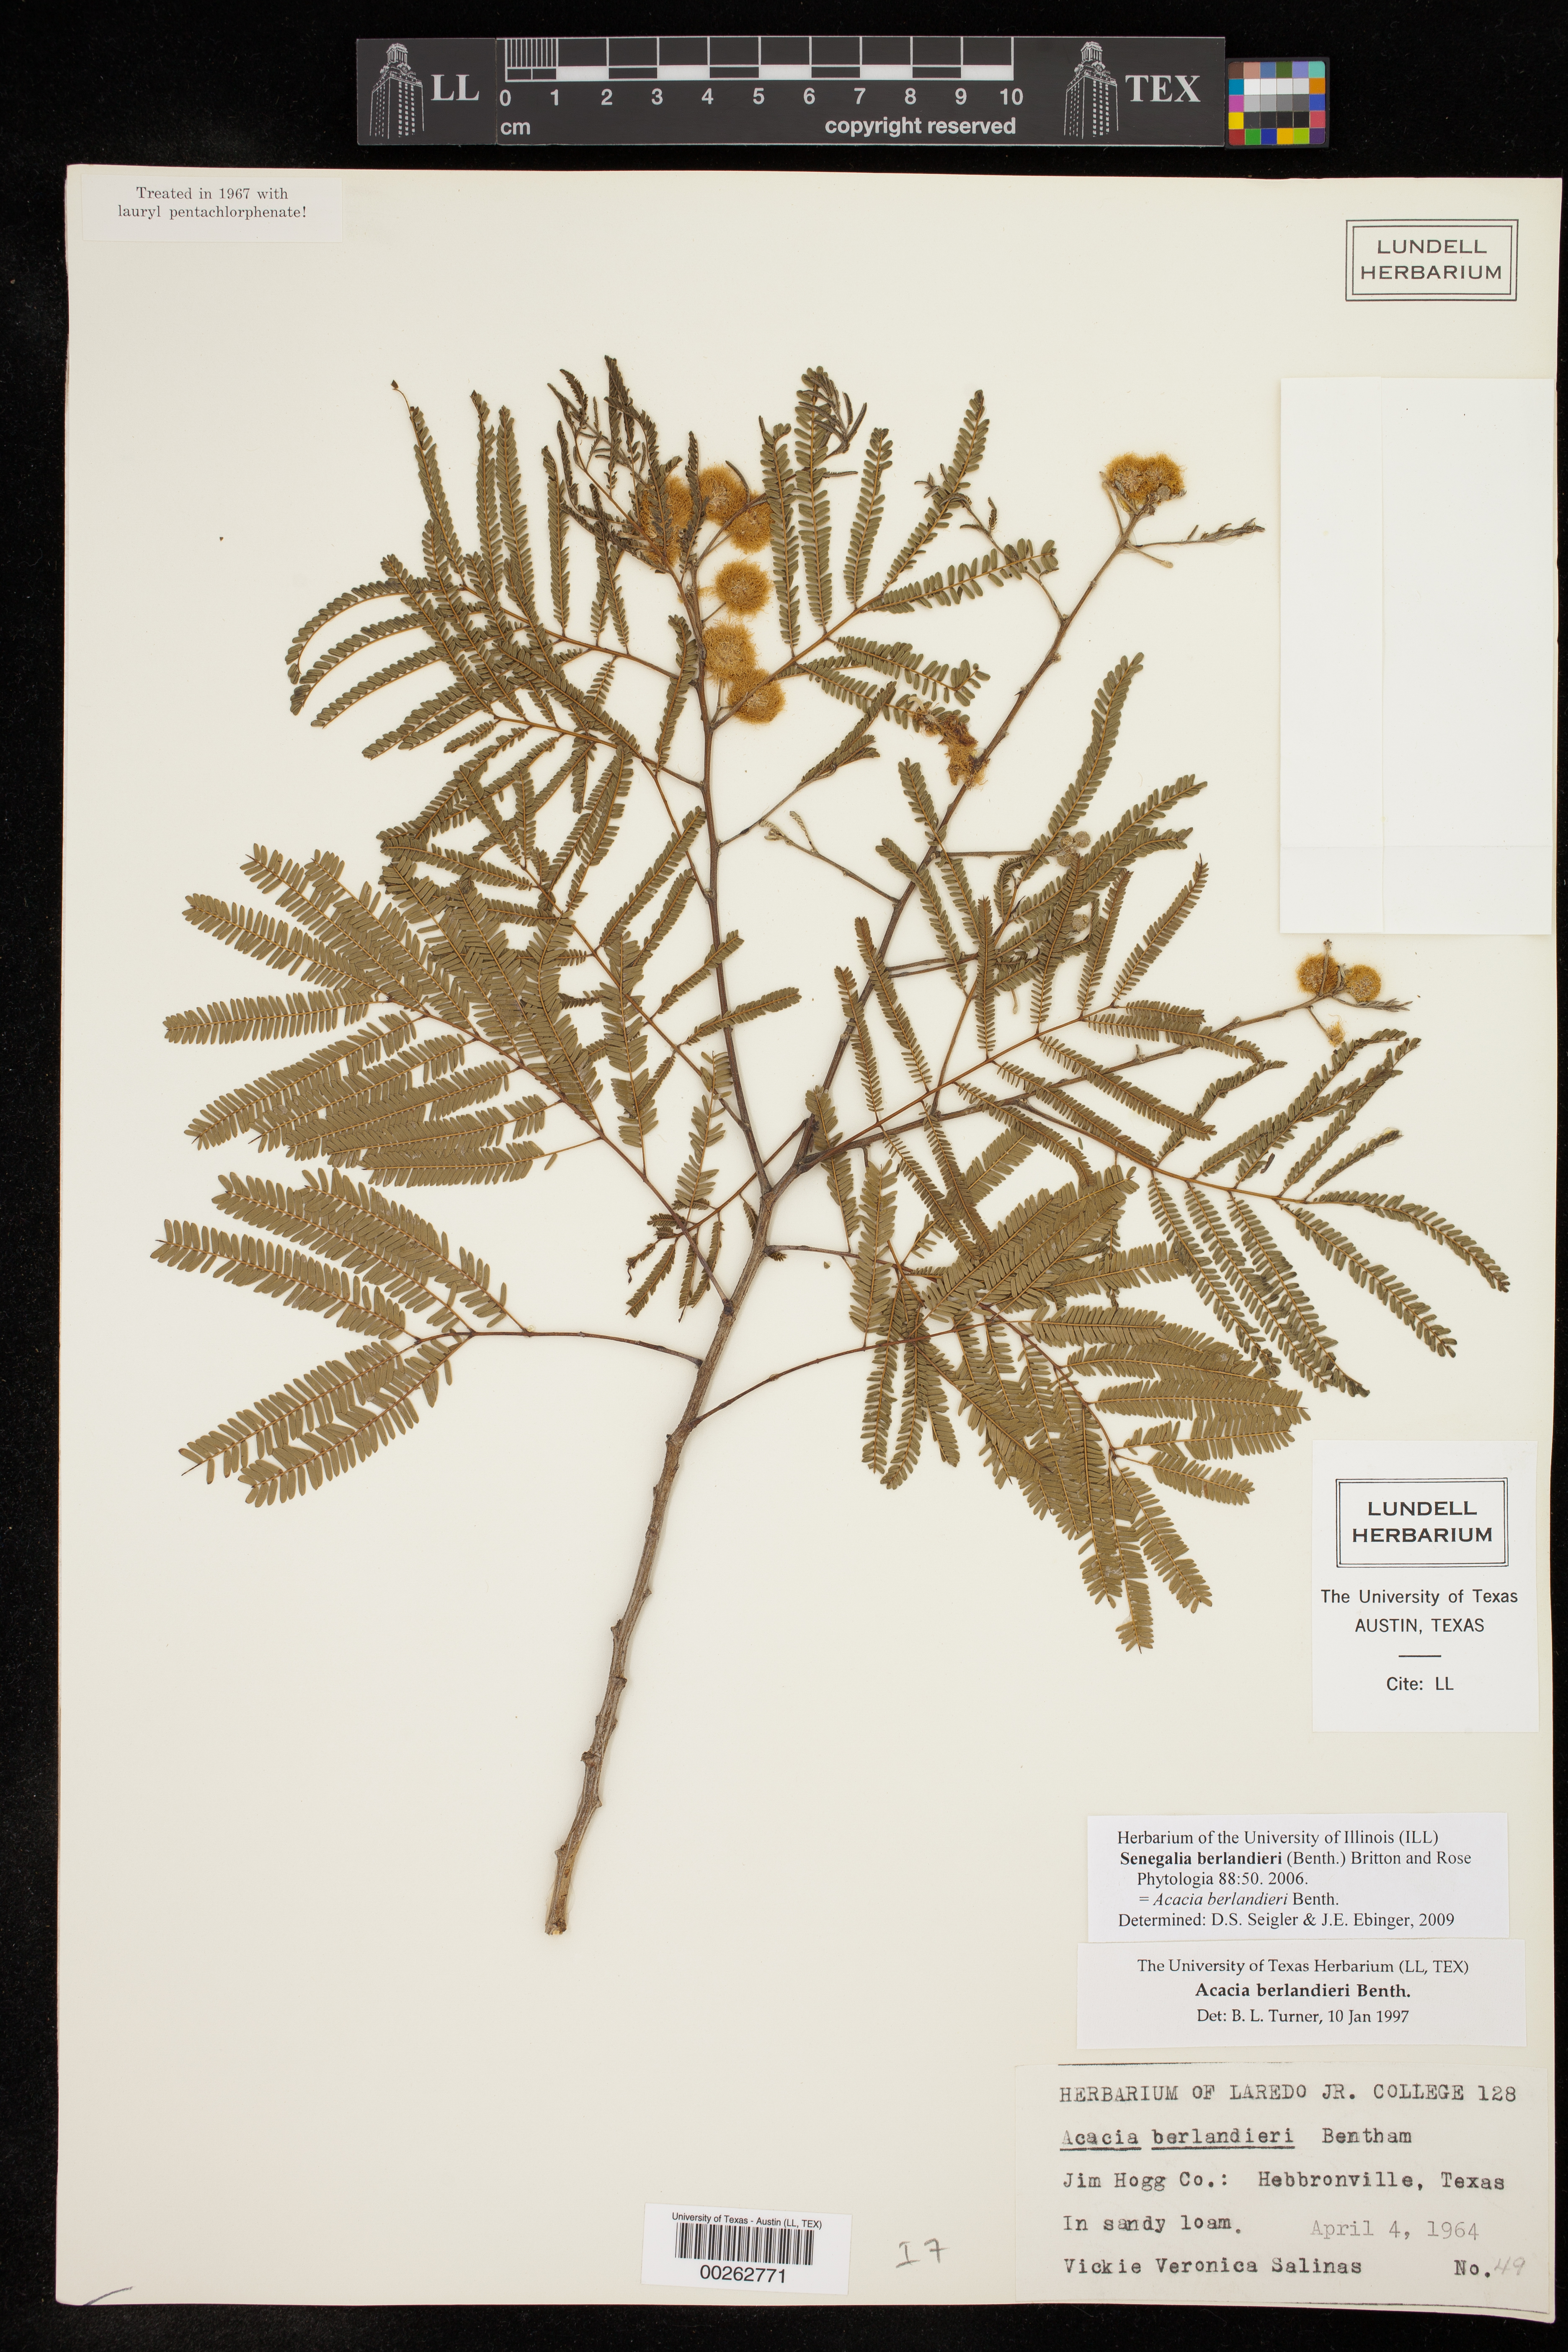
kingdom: Plantae
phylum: Tracheophyta
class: Magnoliopsida
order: Fabales
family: Fabaceae
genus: Senegalia
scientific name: Senegalia berlandieri
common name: Berlandier acacia
